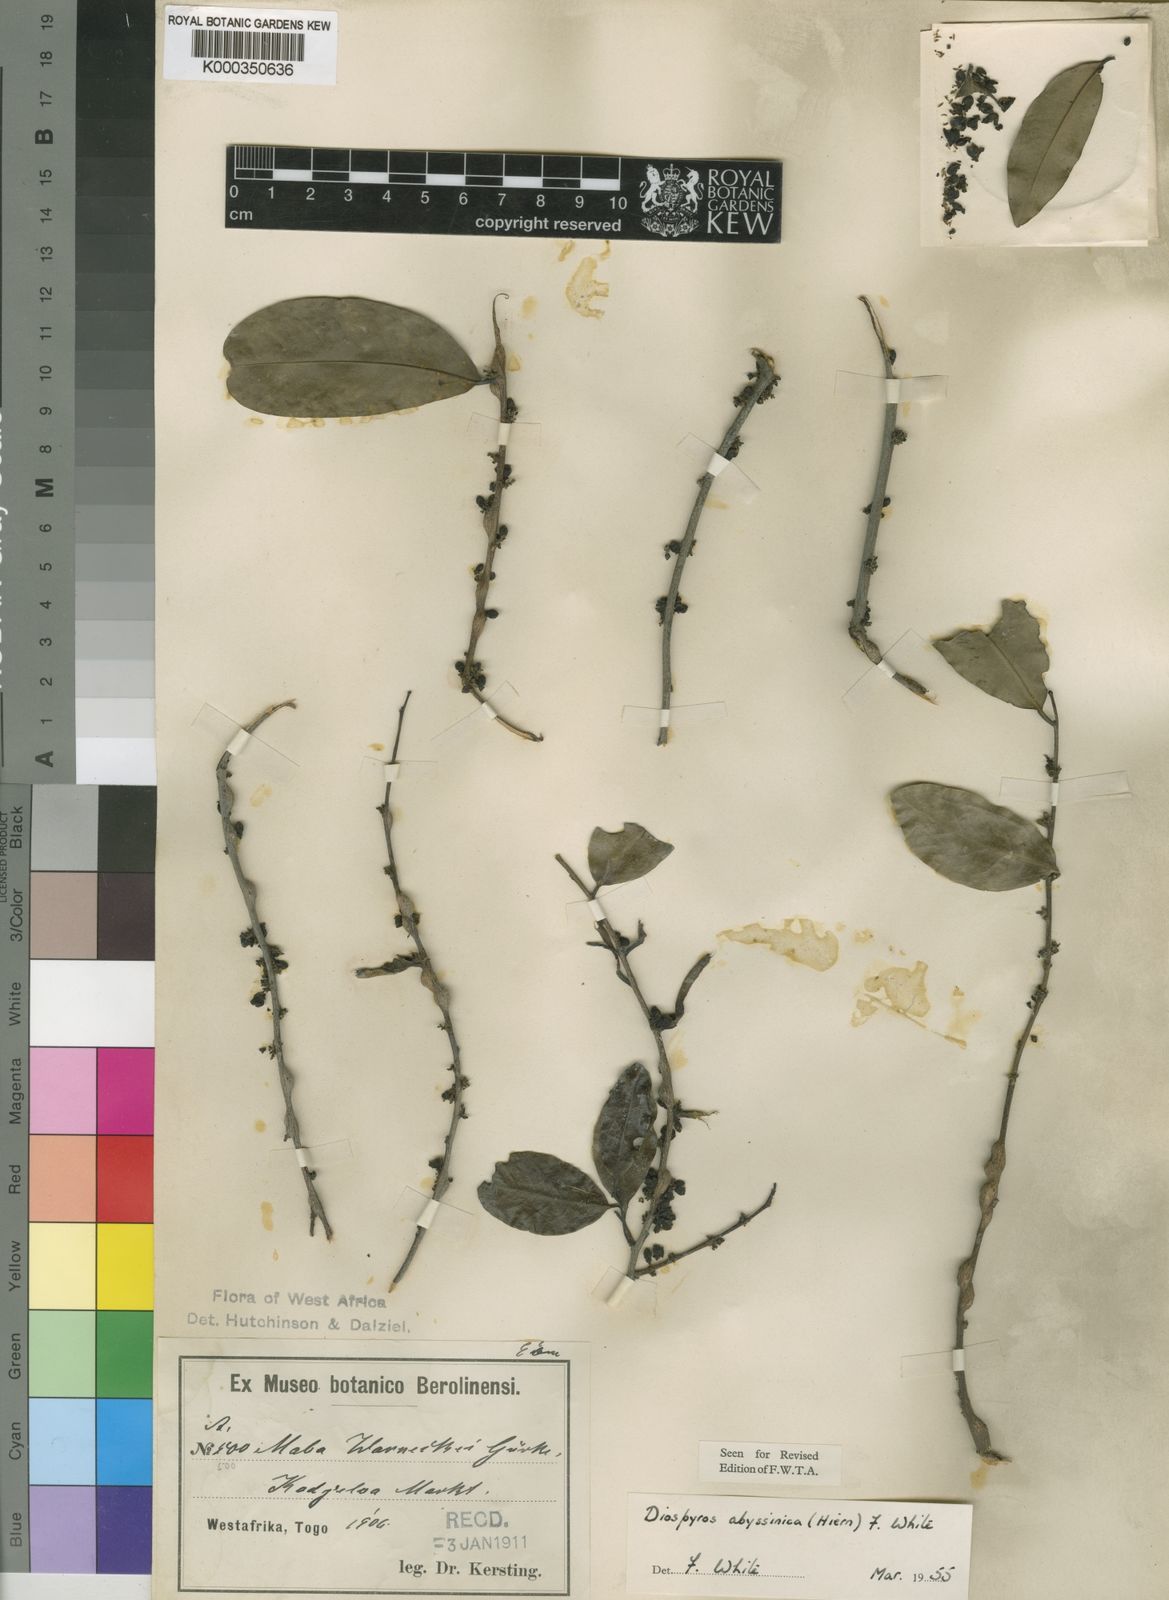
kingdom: Plantae
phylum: Tracheophyta
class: Magnoliopsida
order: Ericales
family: Ebenaceae
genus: Diospyros
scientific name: Diospyros abyssinica
